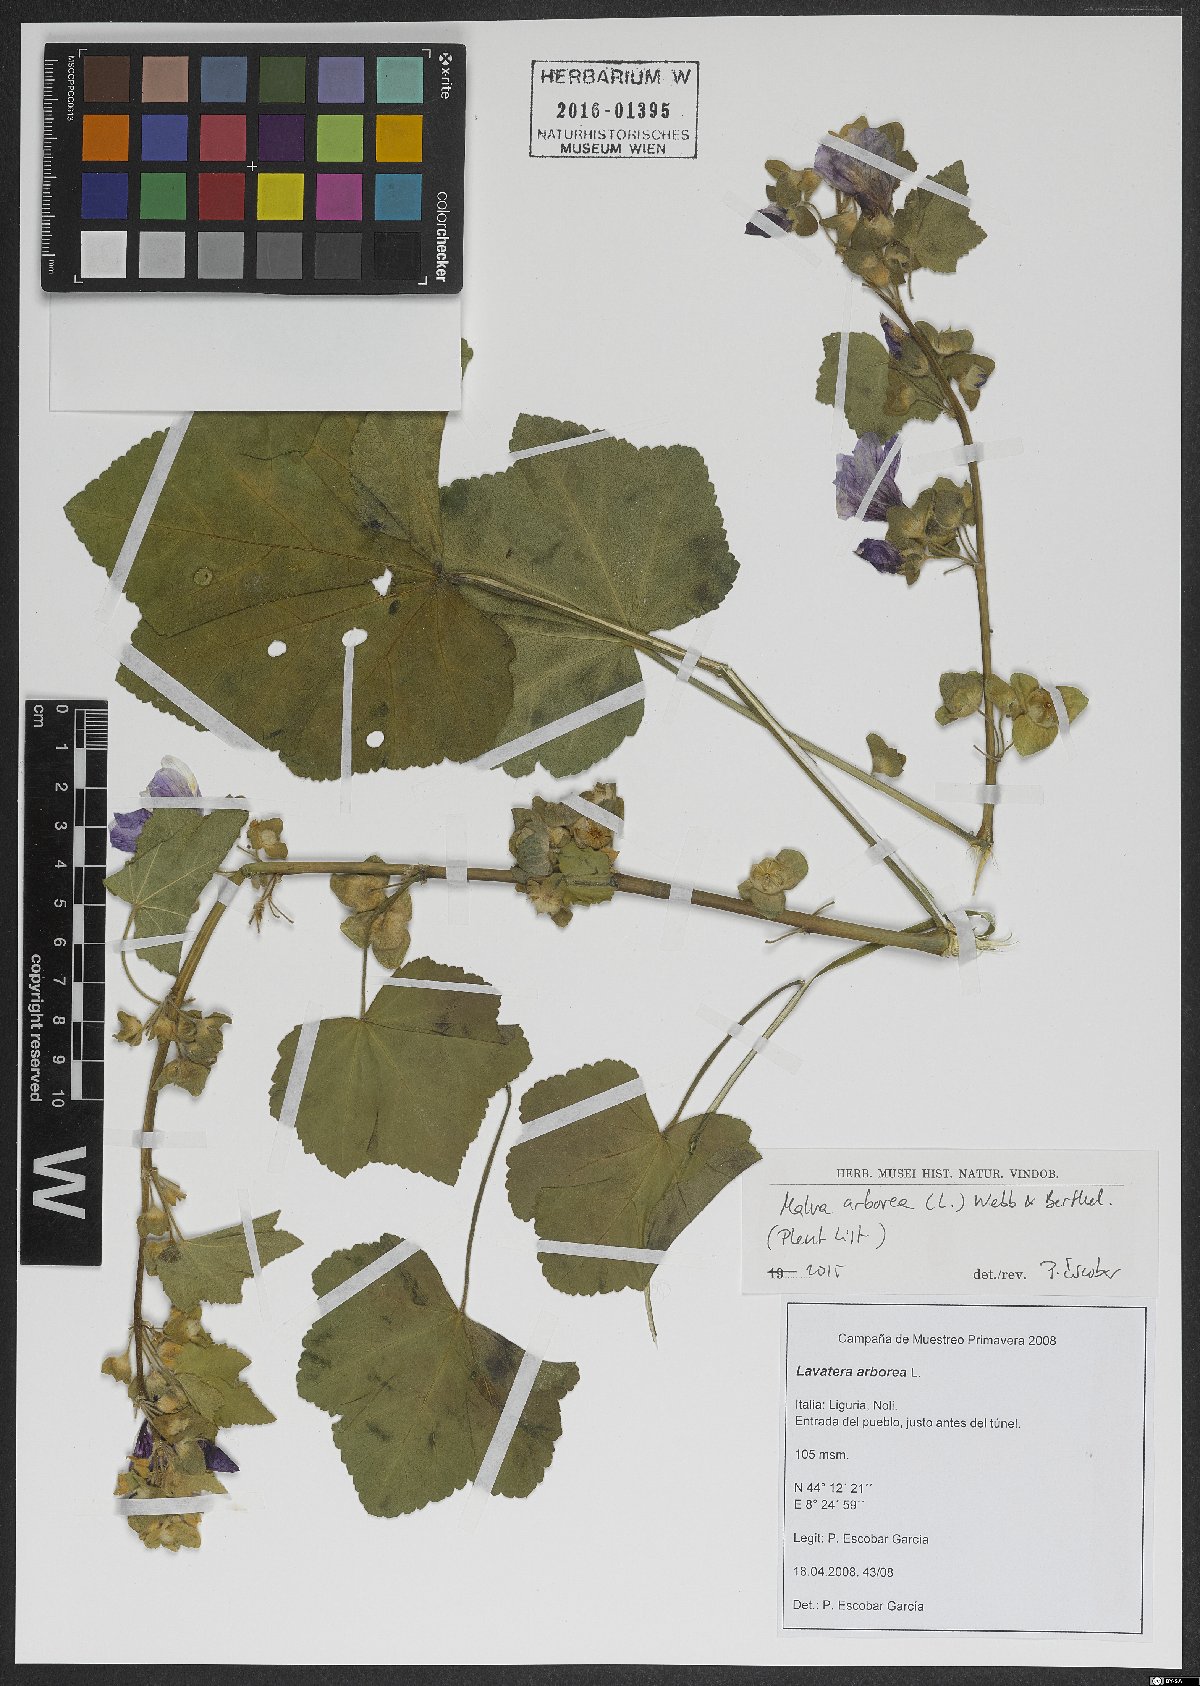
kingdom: Plantae
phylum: Tracheophyta
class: Magnoliopsida
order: Malvales
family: Malvaceae
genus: Malva
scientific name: Malva arborea
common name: Tree mallow
